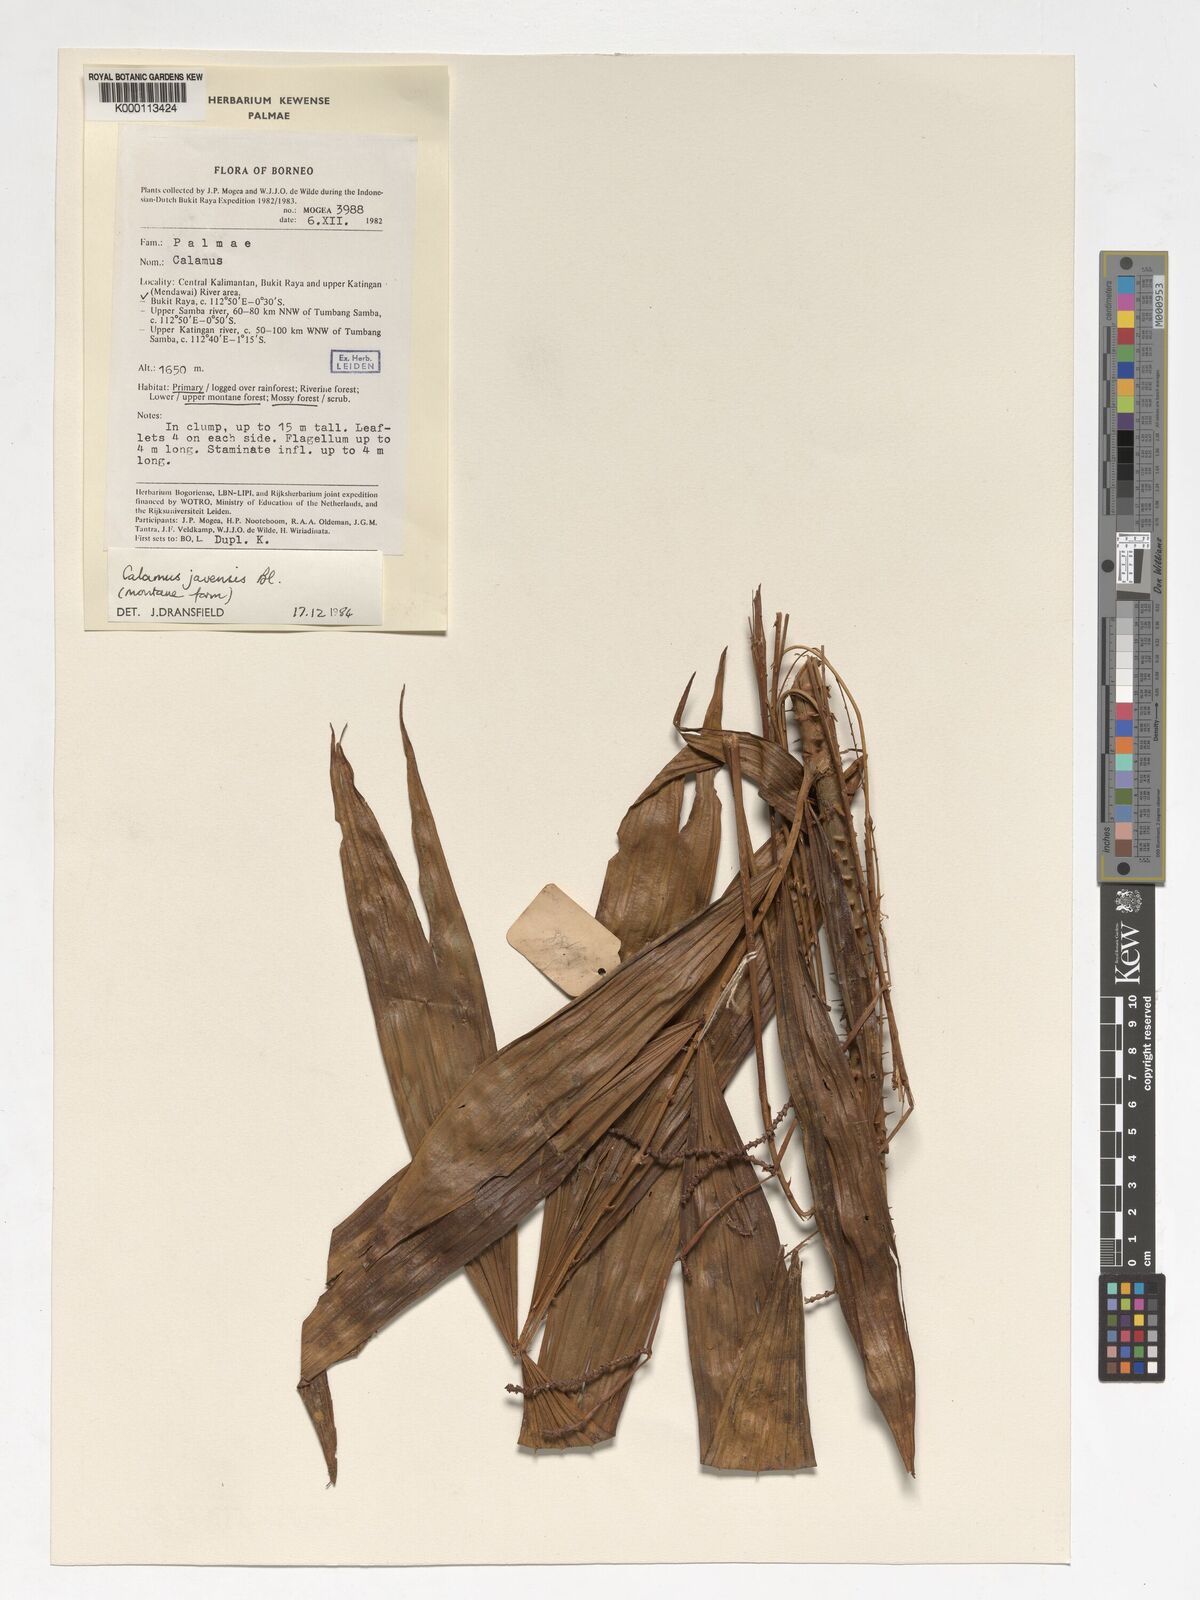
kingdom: Plantae
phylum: Tracheophyta
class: Liliopsida
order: Arecales
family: Arecaceae
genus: Calamus
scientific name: Calamus javensis
